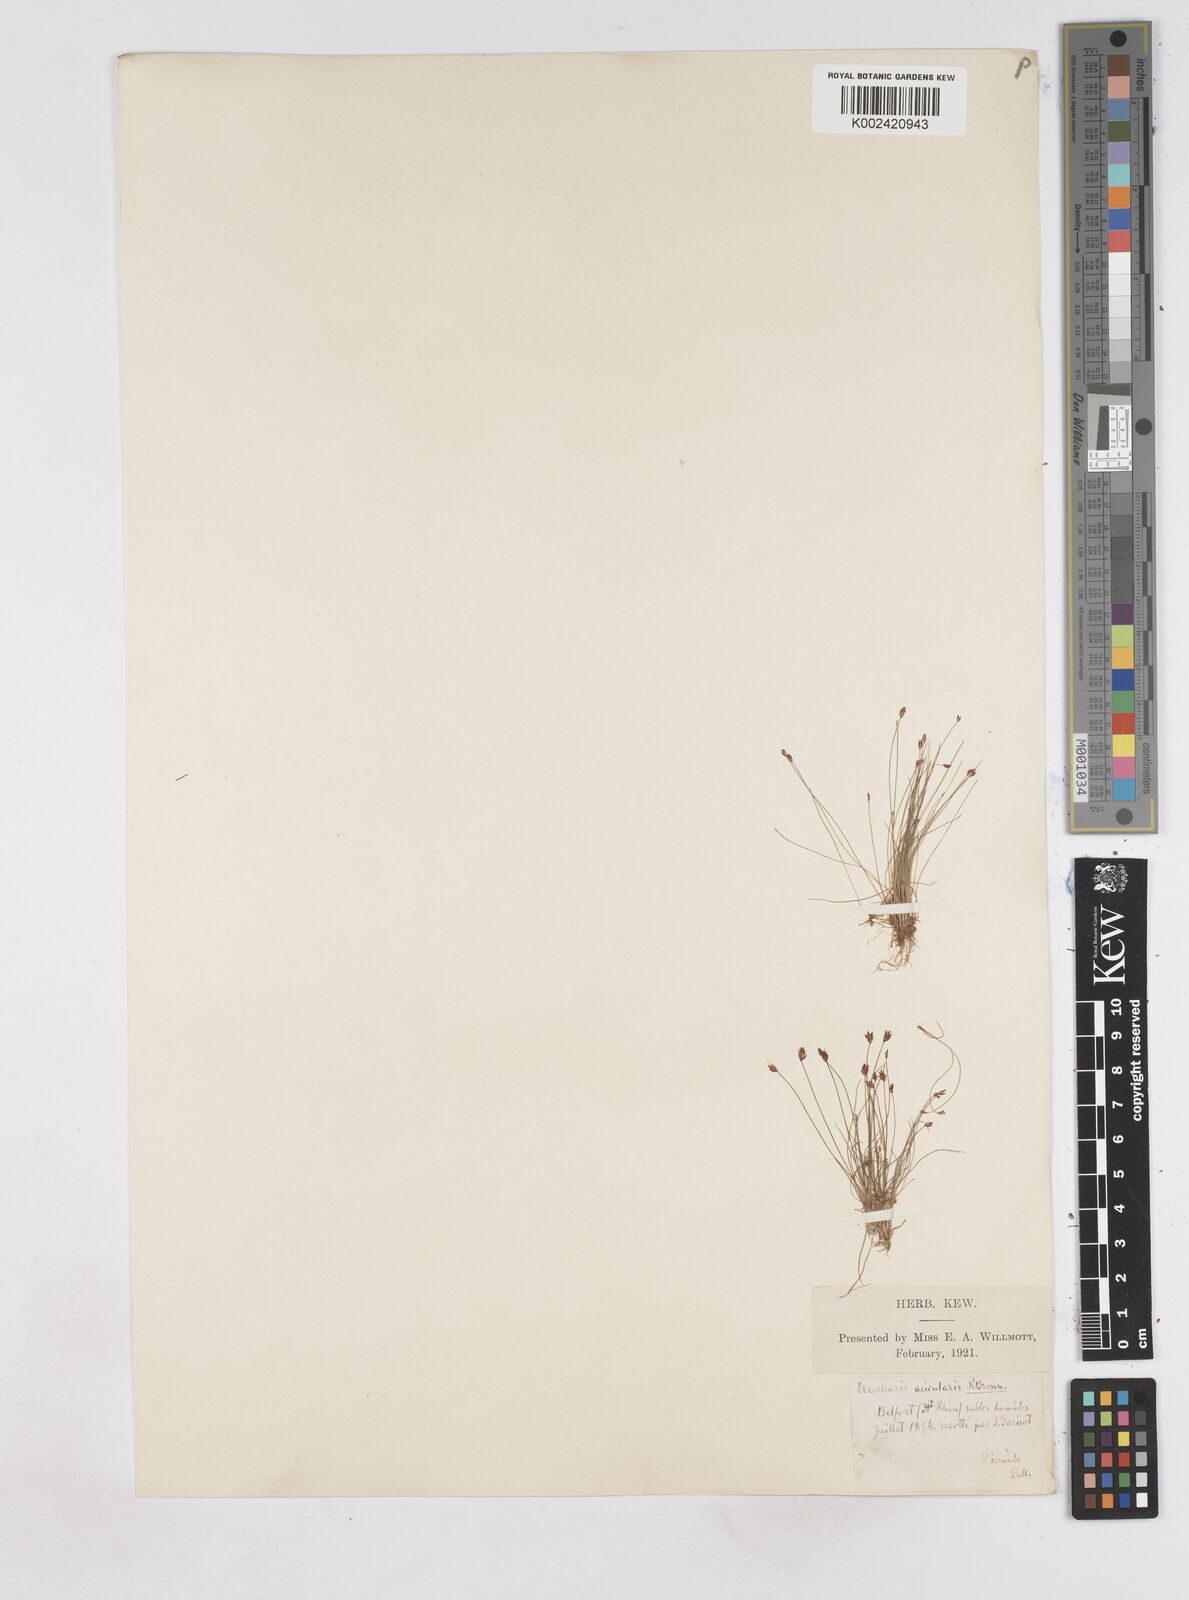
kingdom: Plantae
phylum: Tracheophyta
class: Liliopsida
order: Poales
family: Cyperaceae
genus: Eleocharis
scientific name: Eleocharis acicularis
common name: Needle spike-rush
